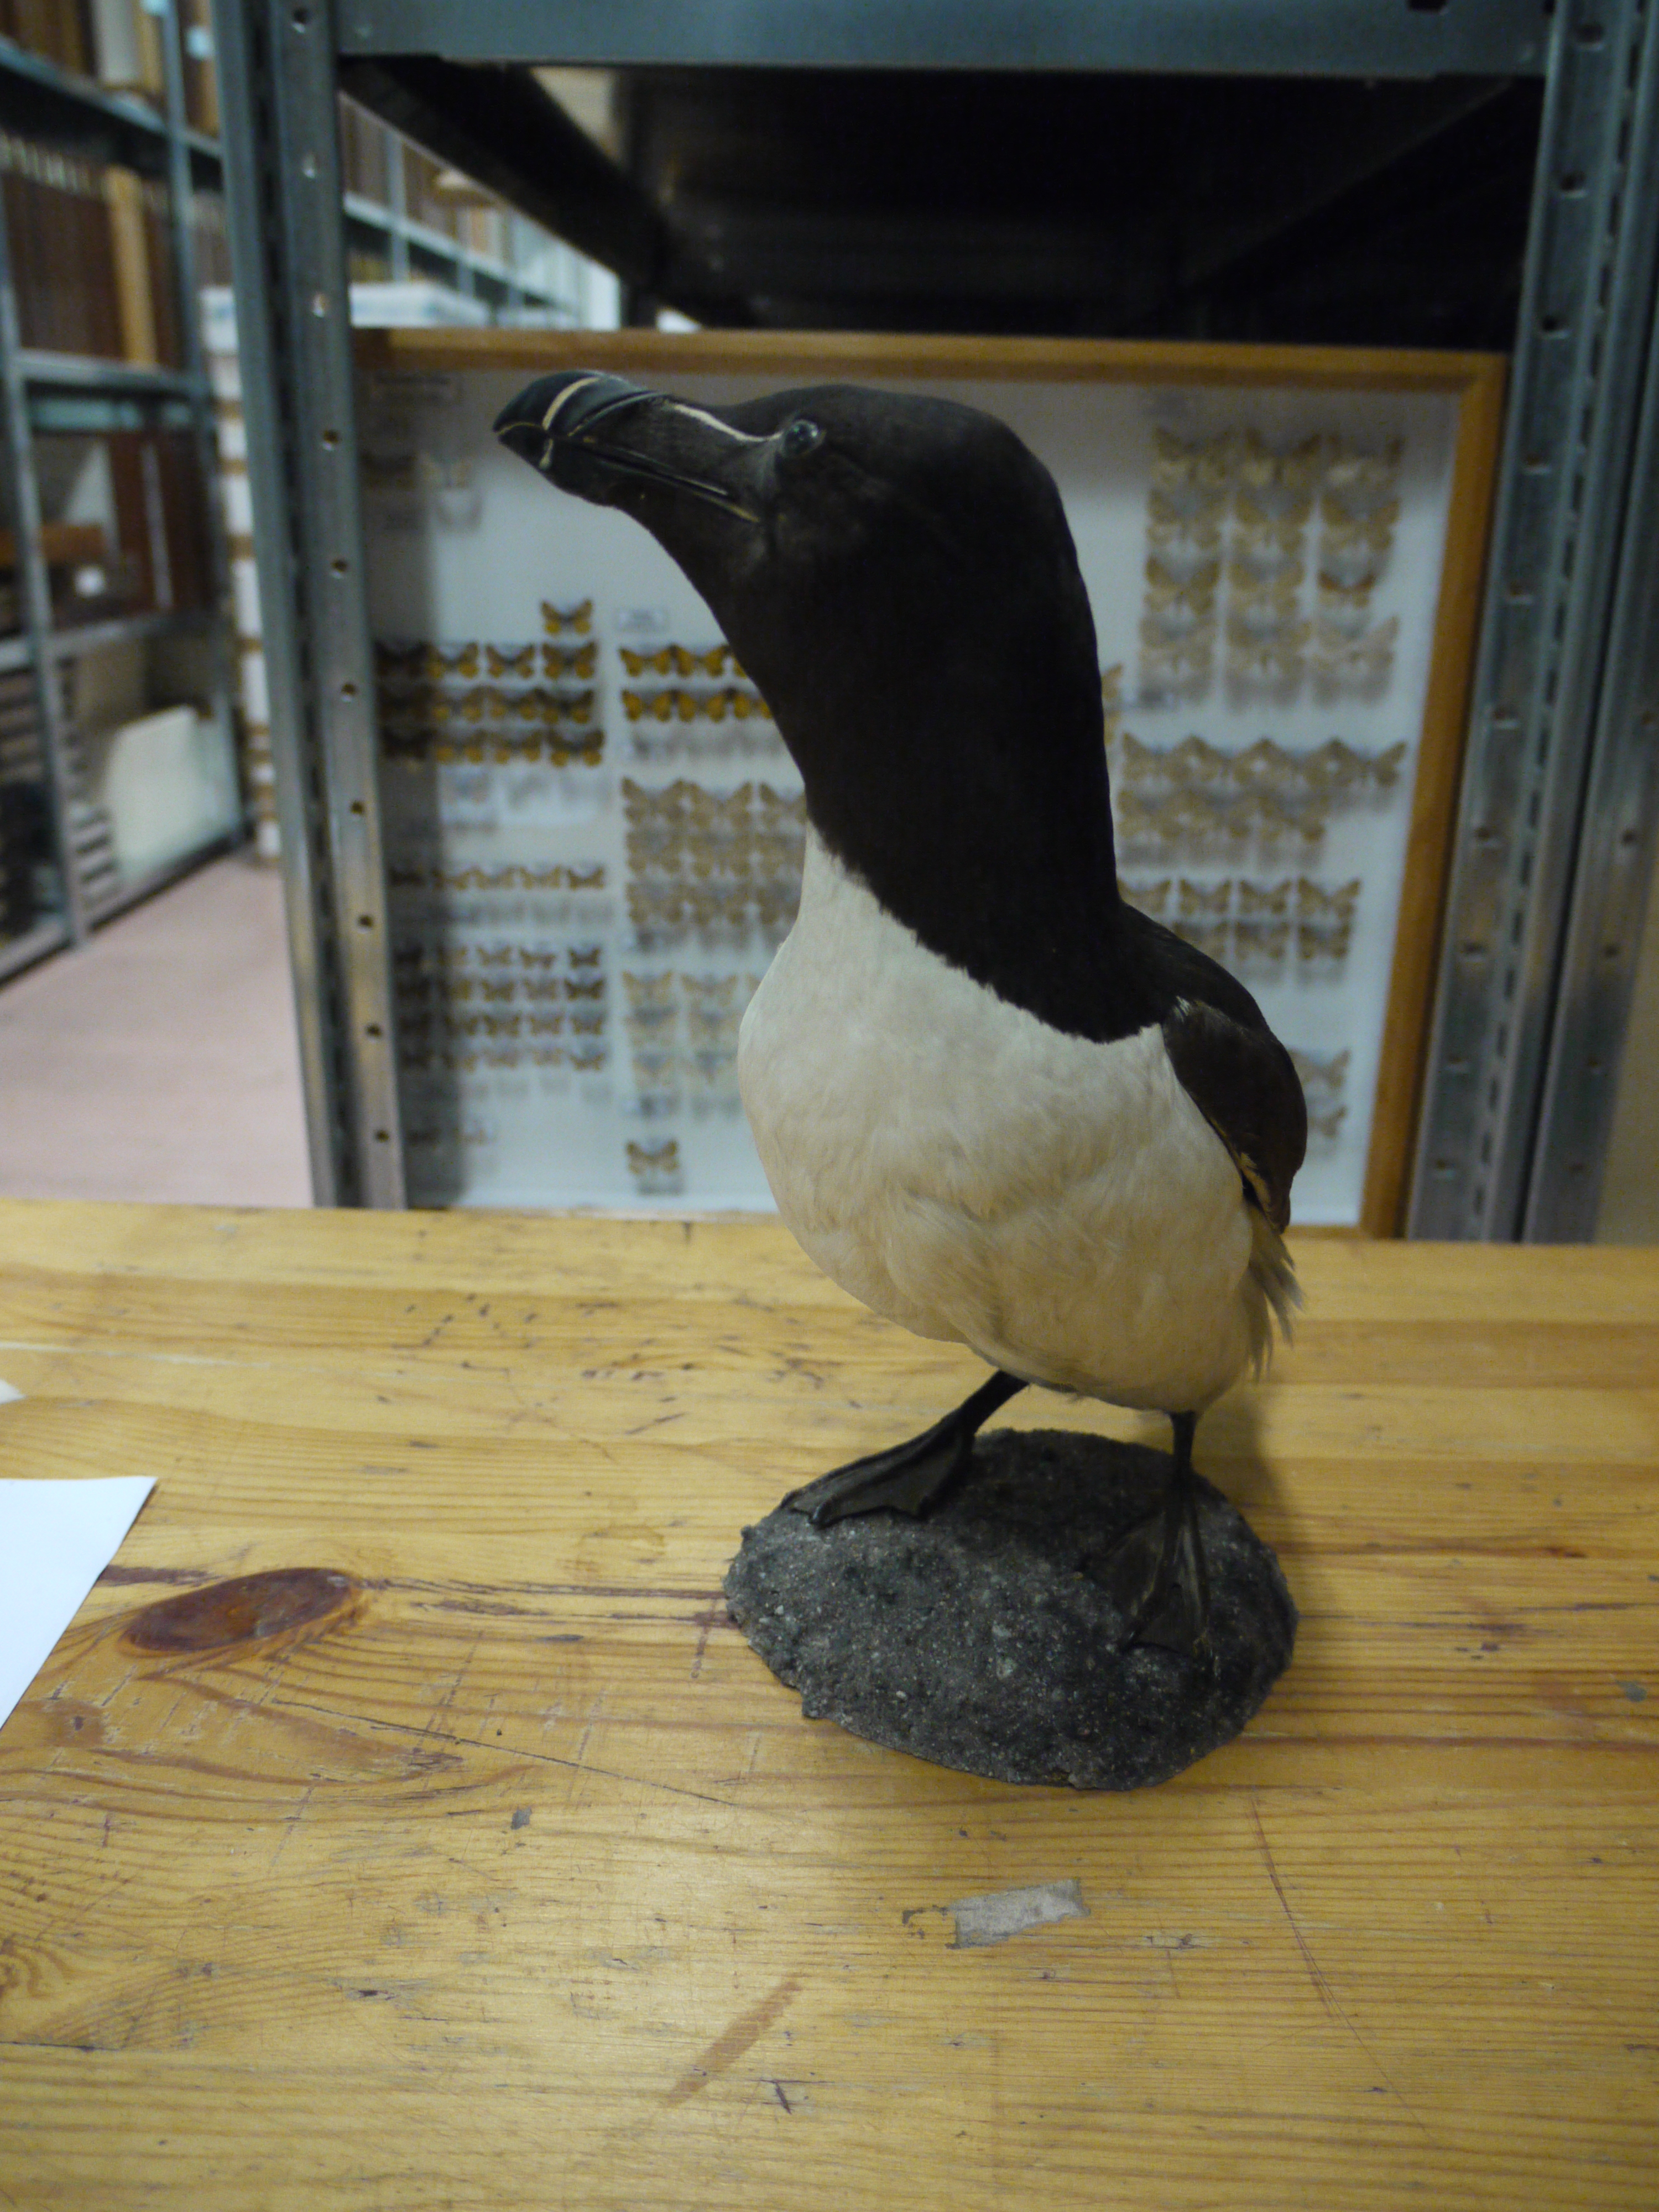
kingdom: Animalia
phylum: Chordata
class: Aves
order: Charadriiformes
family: Alcidae
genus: Alca
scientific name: Alca torda
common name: Razorbill
